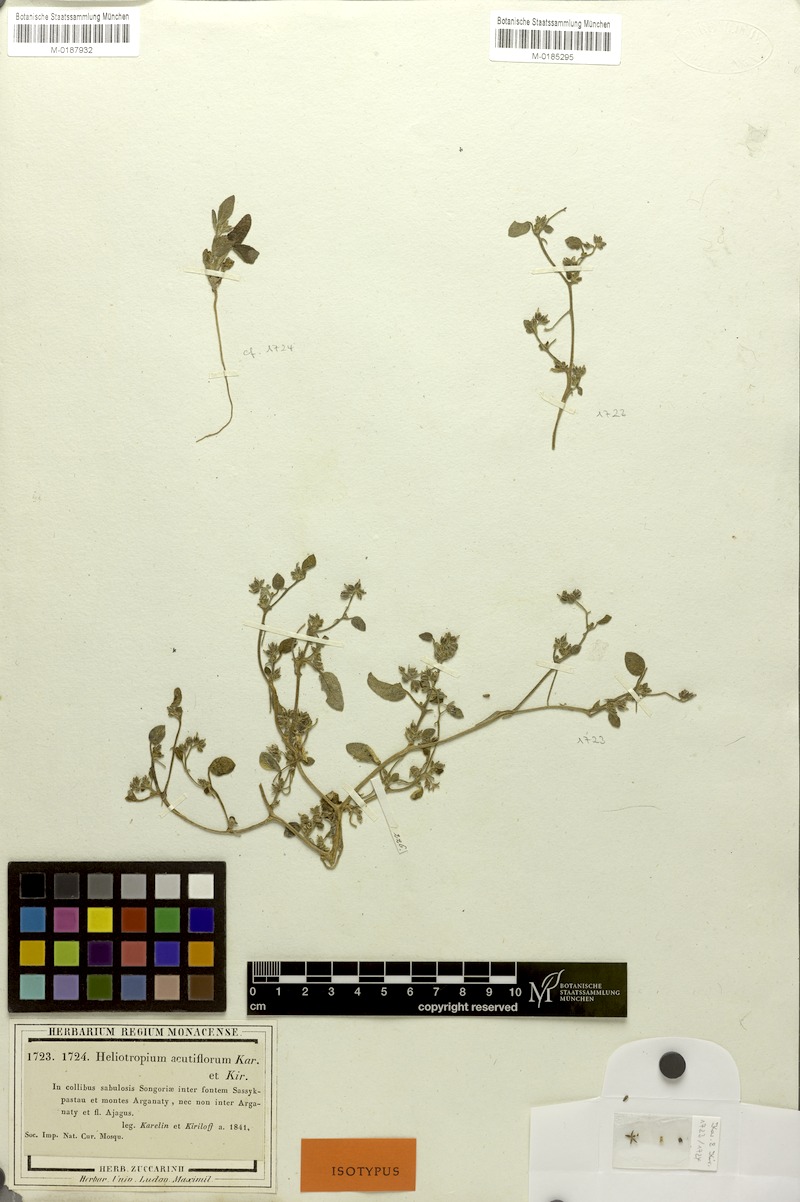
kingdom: Plantae
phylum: Tracheophyta
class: Magnoliopsida
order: Boraginales
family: Heliotropiaceae
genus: Heliotropium
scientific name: Heliotropium acutiflorum
